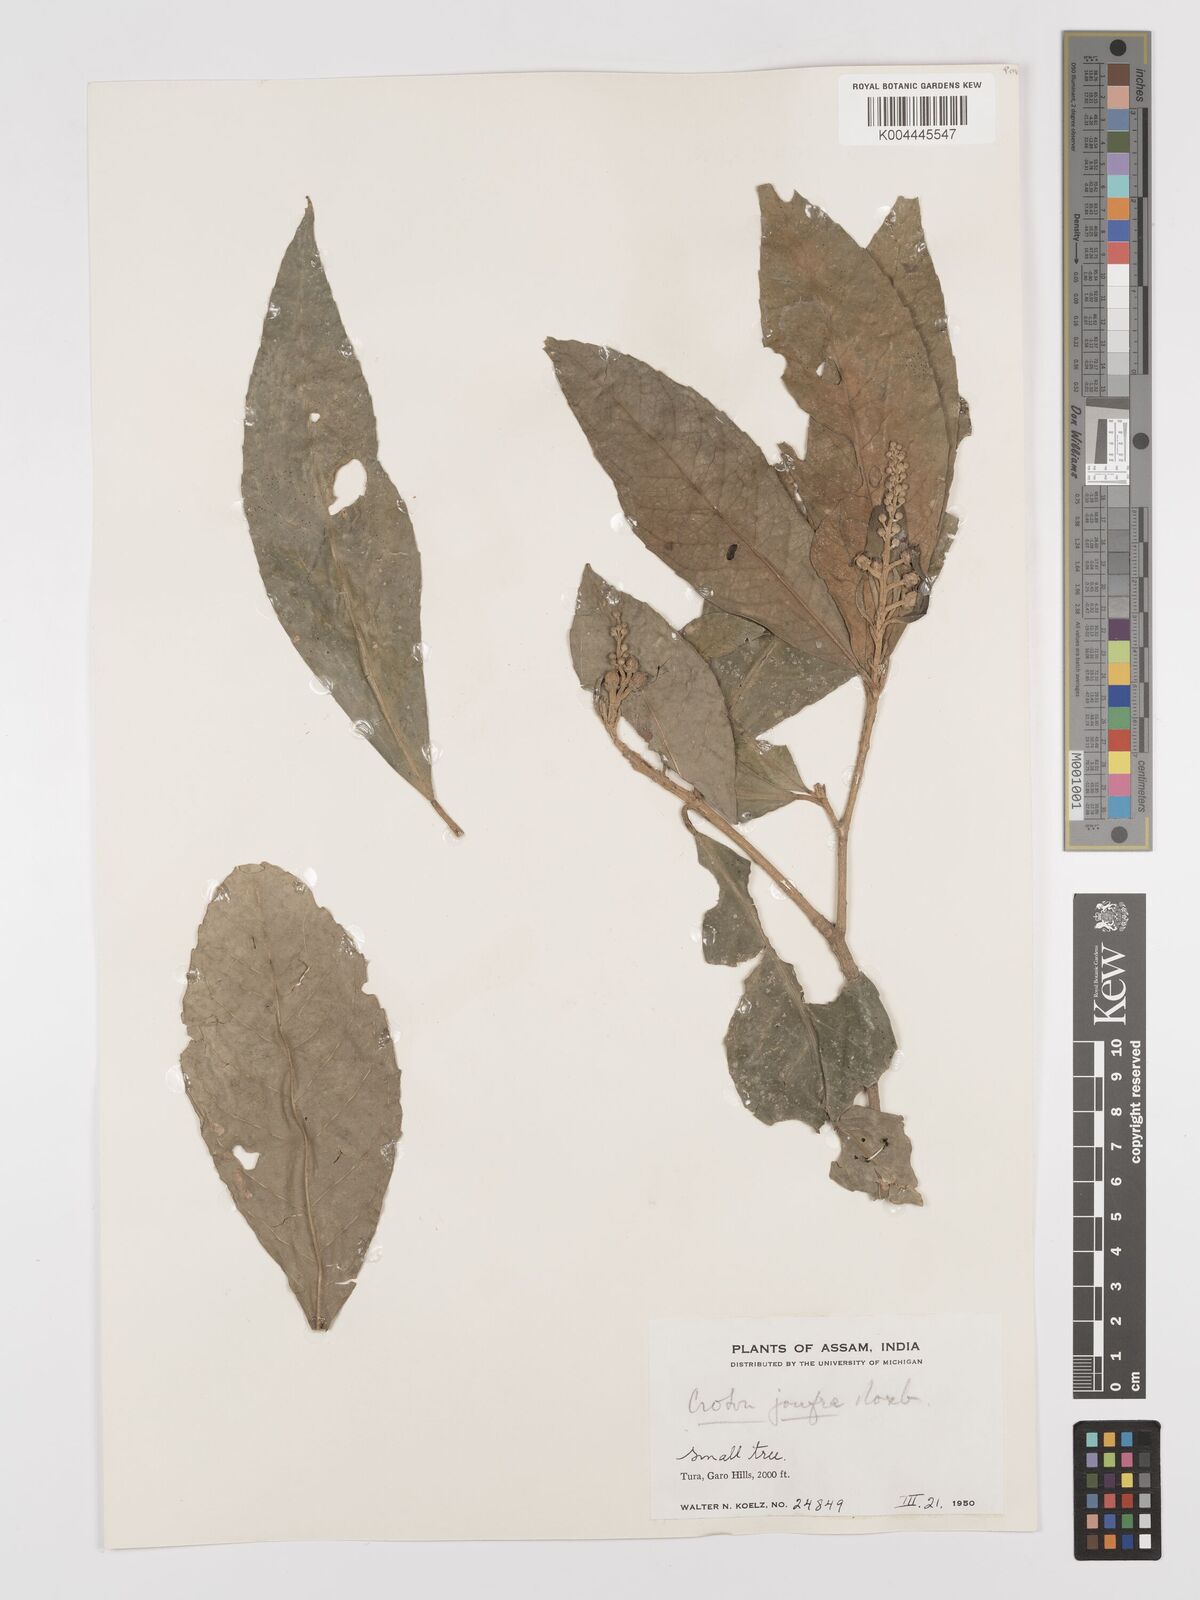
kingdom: Plantae
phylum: Tracheophyta
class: Magnoliopsida
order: Malpighiales
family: Euphorbiaceae
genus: Croton
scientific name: Croton joufra
